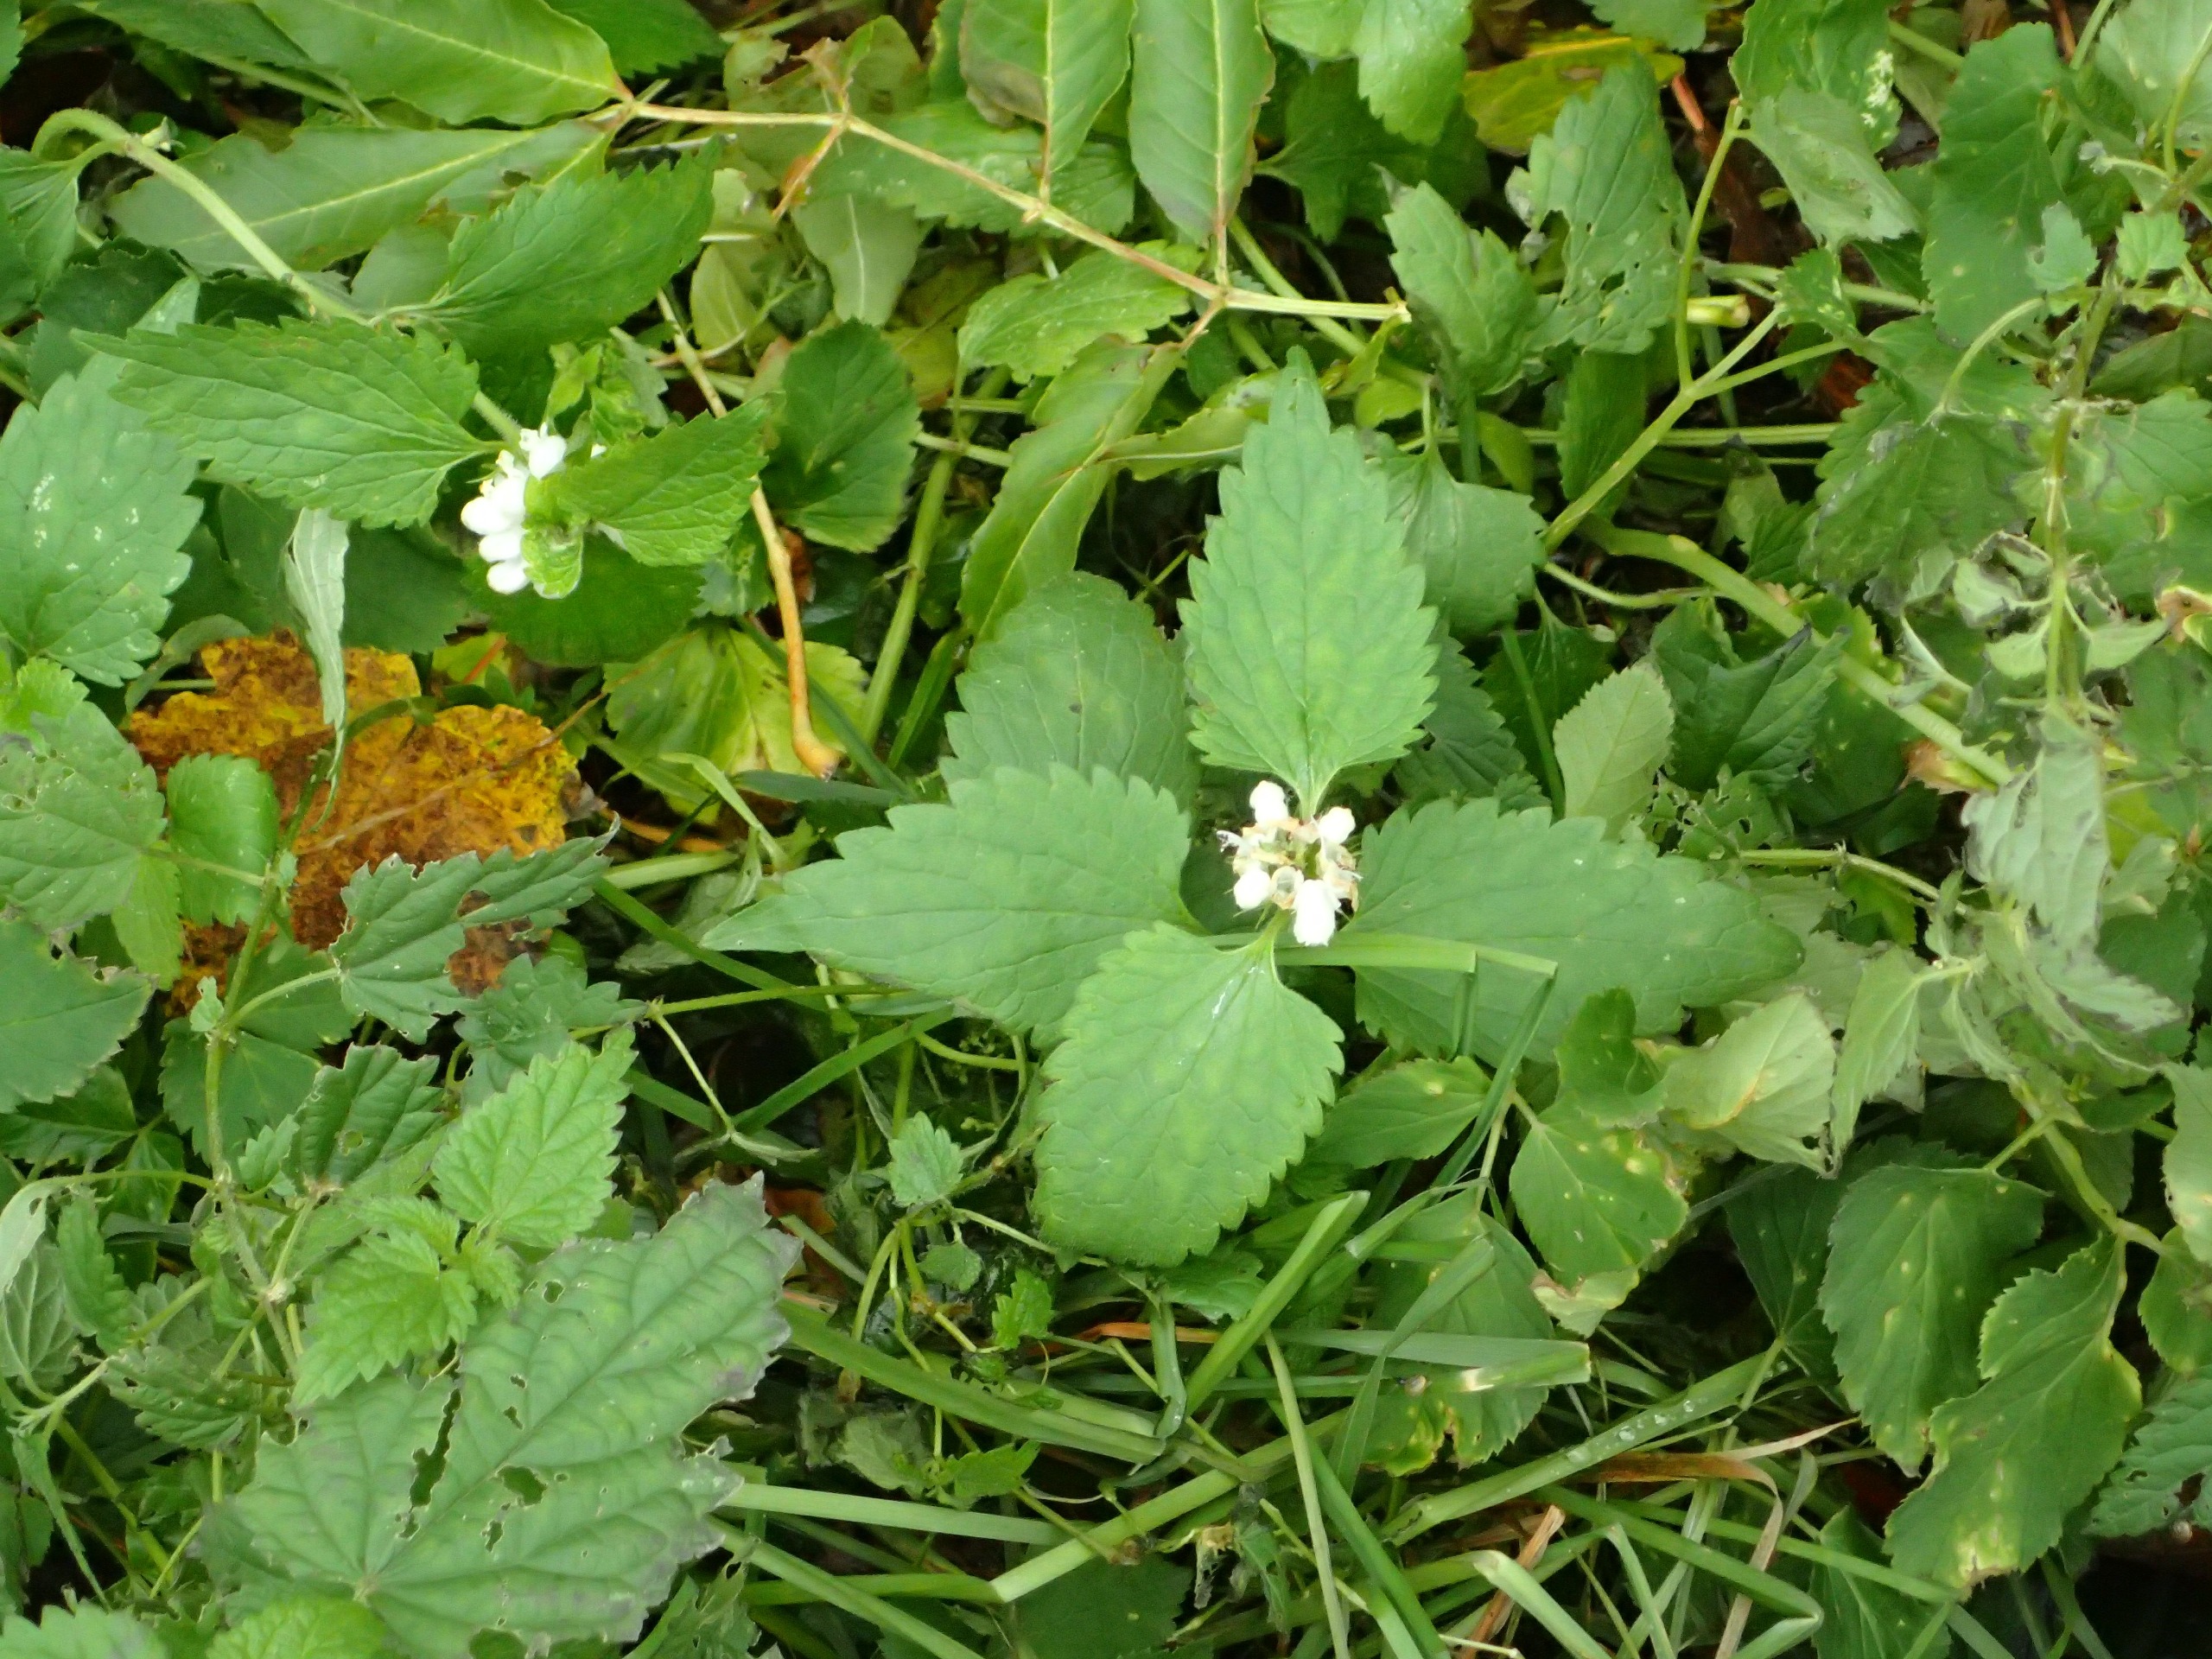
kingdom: Plantae
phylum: Tracheophyta
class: Magnoliopsida
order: Lamiales
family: Lamiaceae
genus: Lamium
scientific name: Lamium album
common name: Døvnælde
